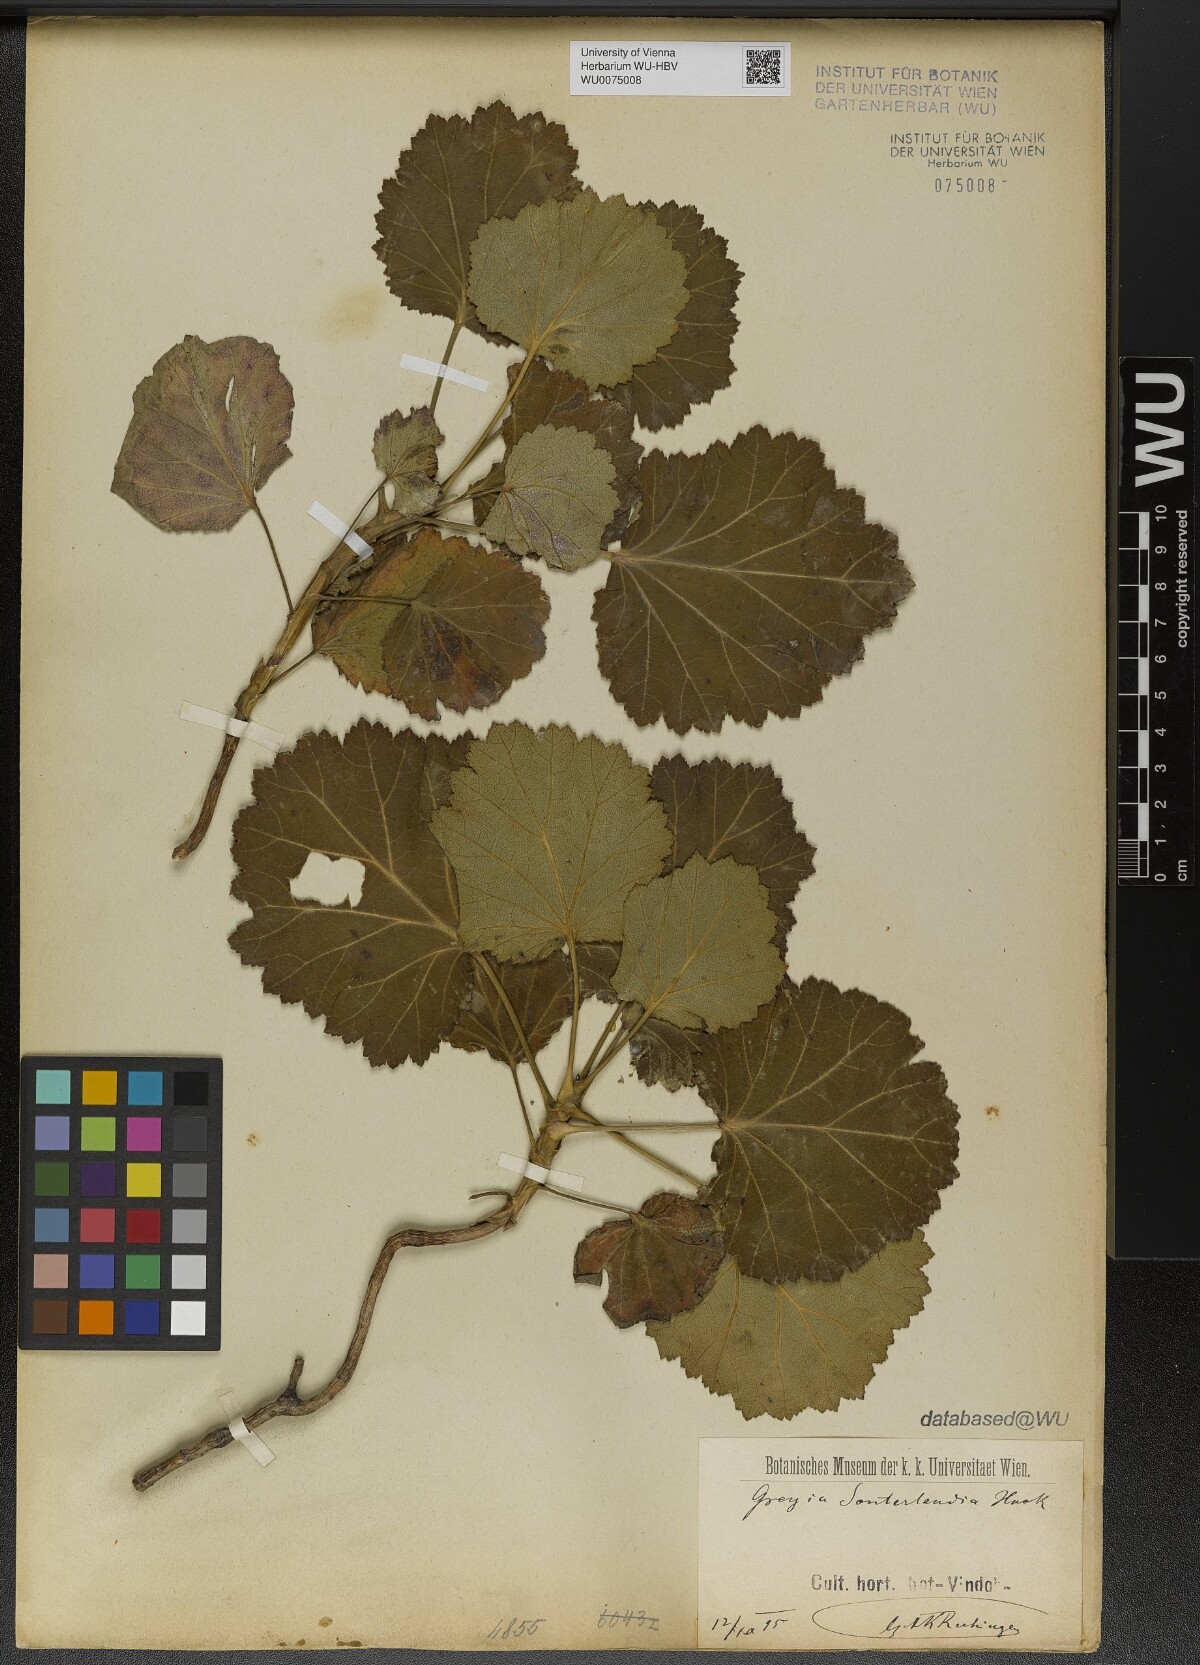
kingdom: Plantae
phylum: Tracheophyta
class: Magnoliopsida
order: Geraniales
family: Francoaceae
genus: Greyia
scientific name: Greyia sutherlandii
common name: Glossy bottlebrush
